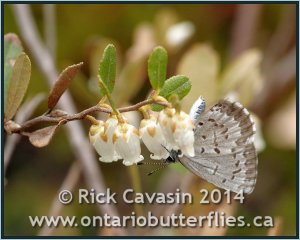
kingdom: Animalia
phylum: Arthropoda
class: Insecta
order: Lepidoptera
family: Lycaenidae
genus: Celastrina
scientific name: Celastrina lucia
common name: Northern Spring Azure
